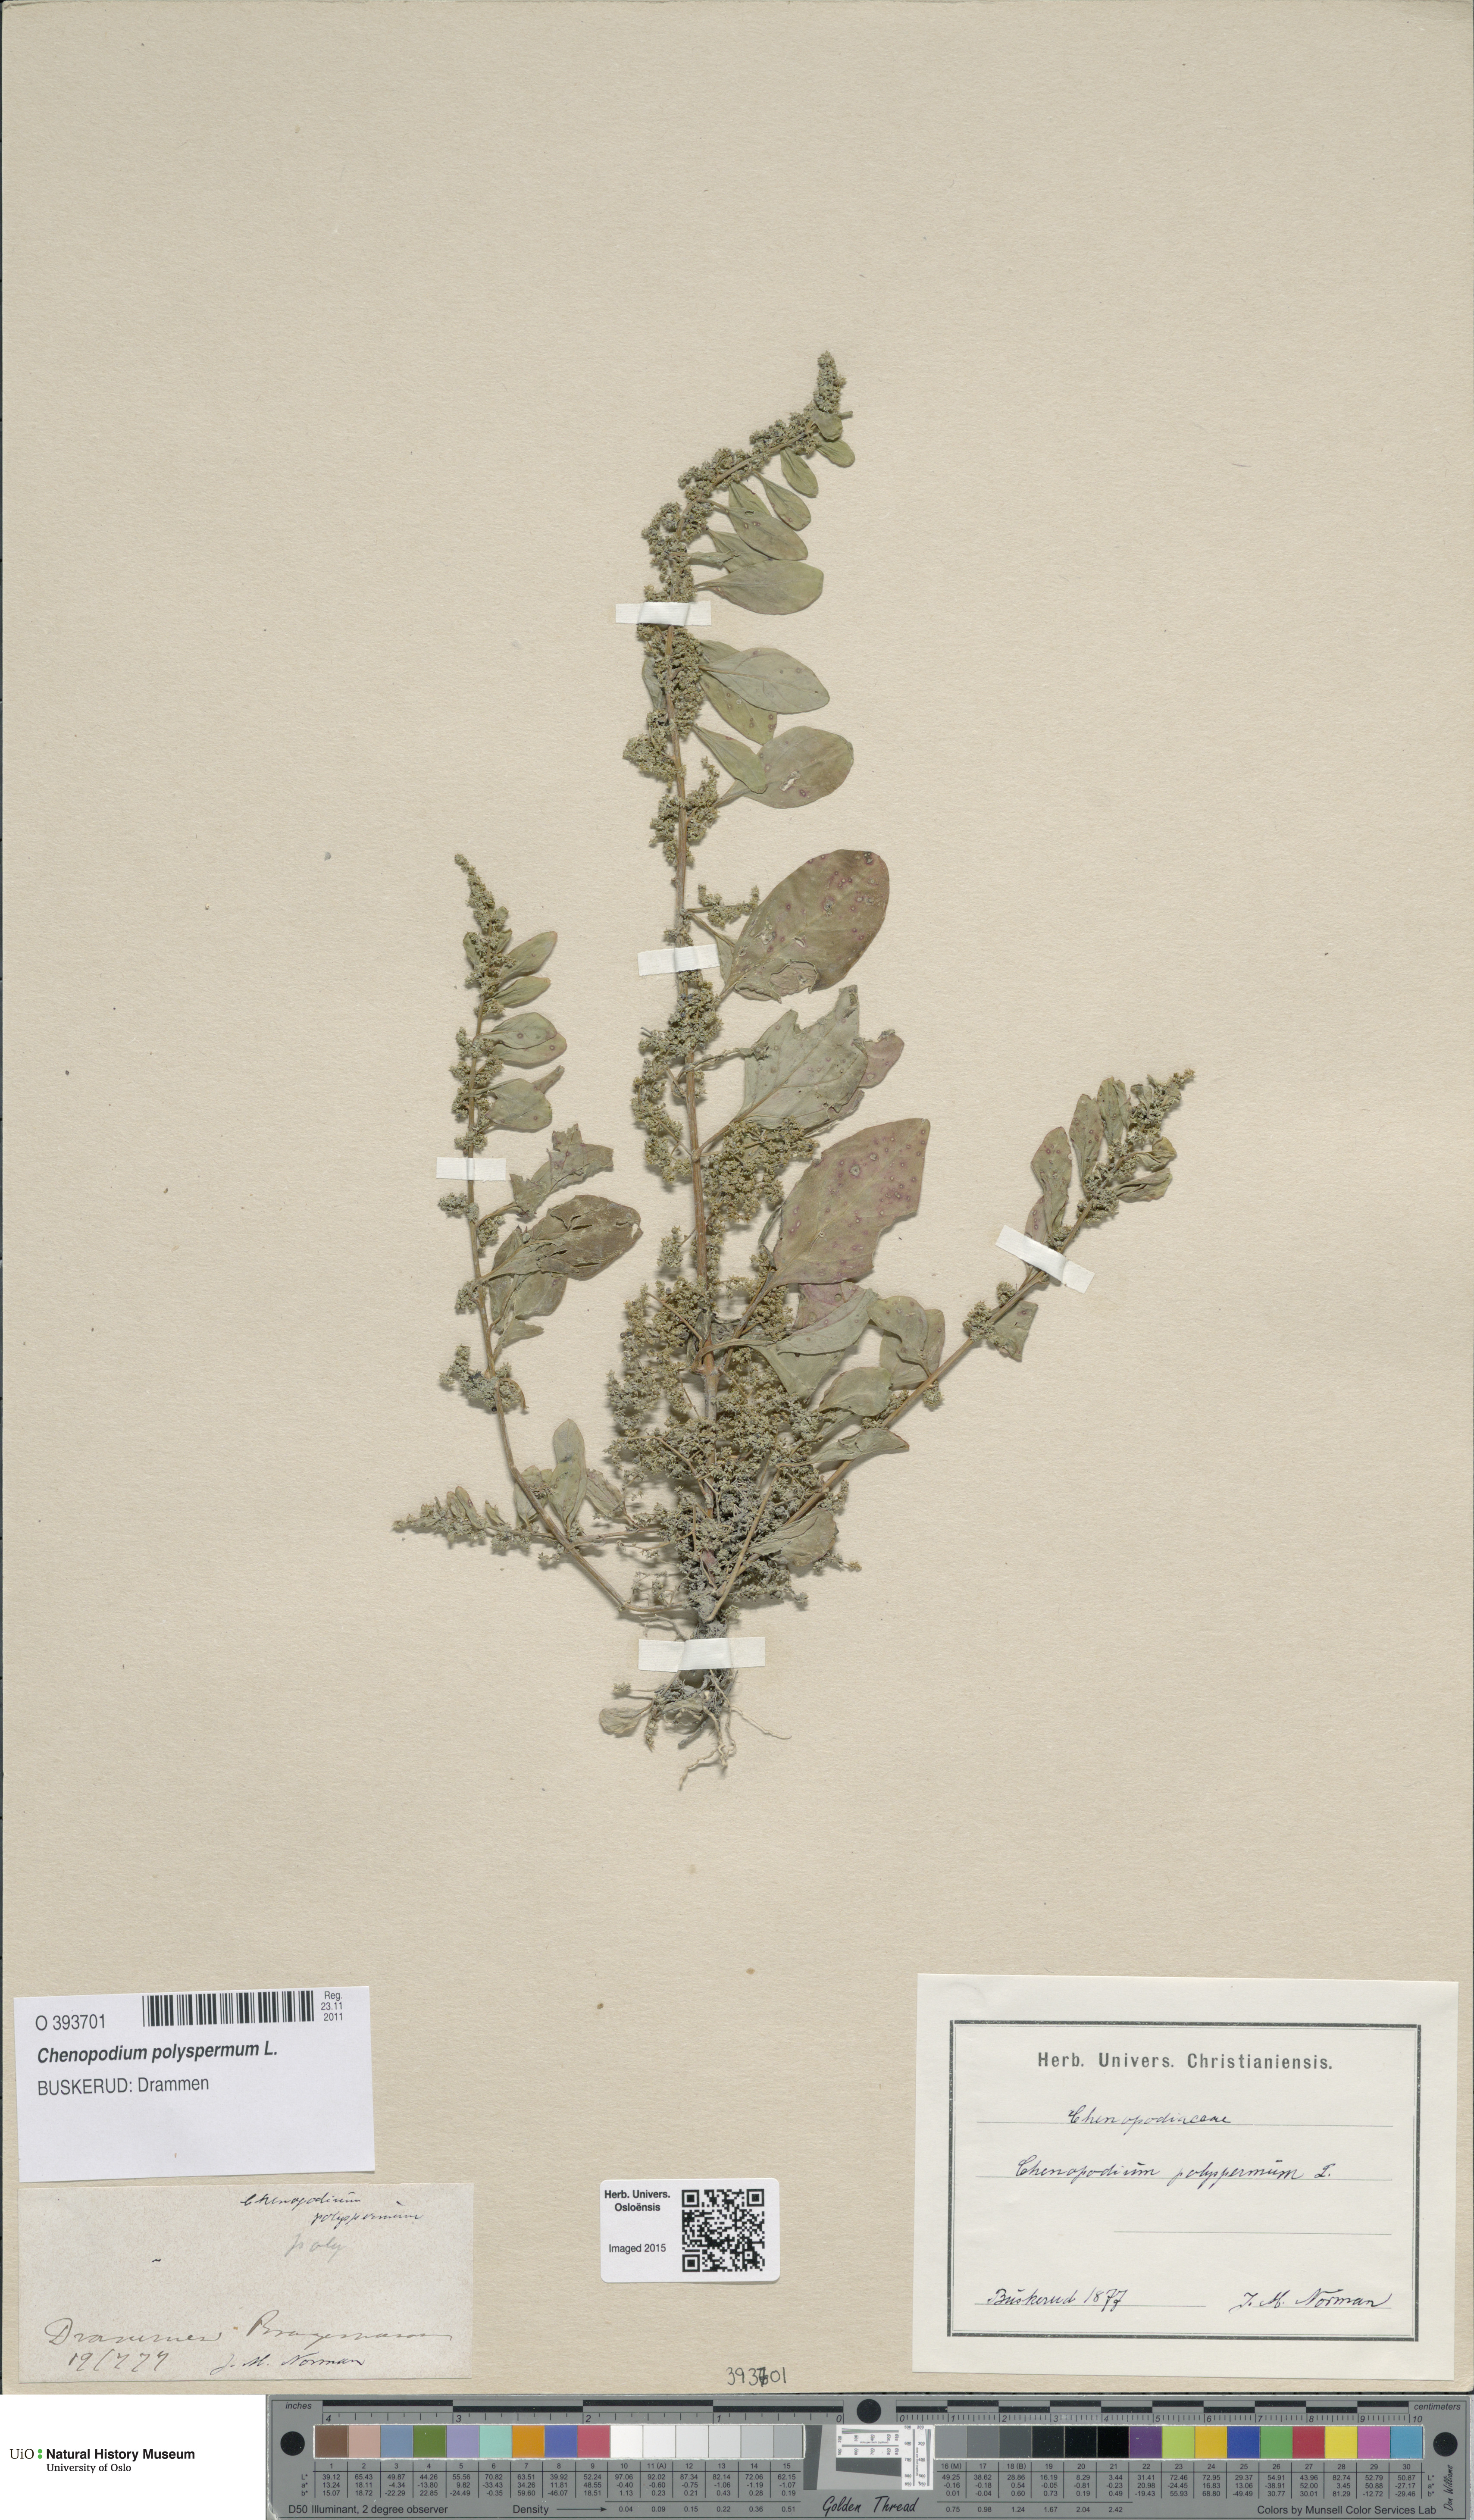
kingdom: Plantae
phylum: Tracheophyta
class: Magnoliopsida
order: Caryophyllales
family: Amaranthaceae
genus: Lipandra
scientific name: Lipandra polysperma
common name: Many-seed goosefoot
